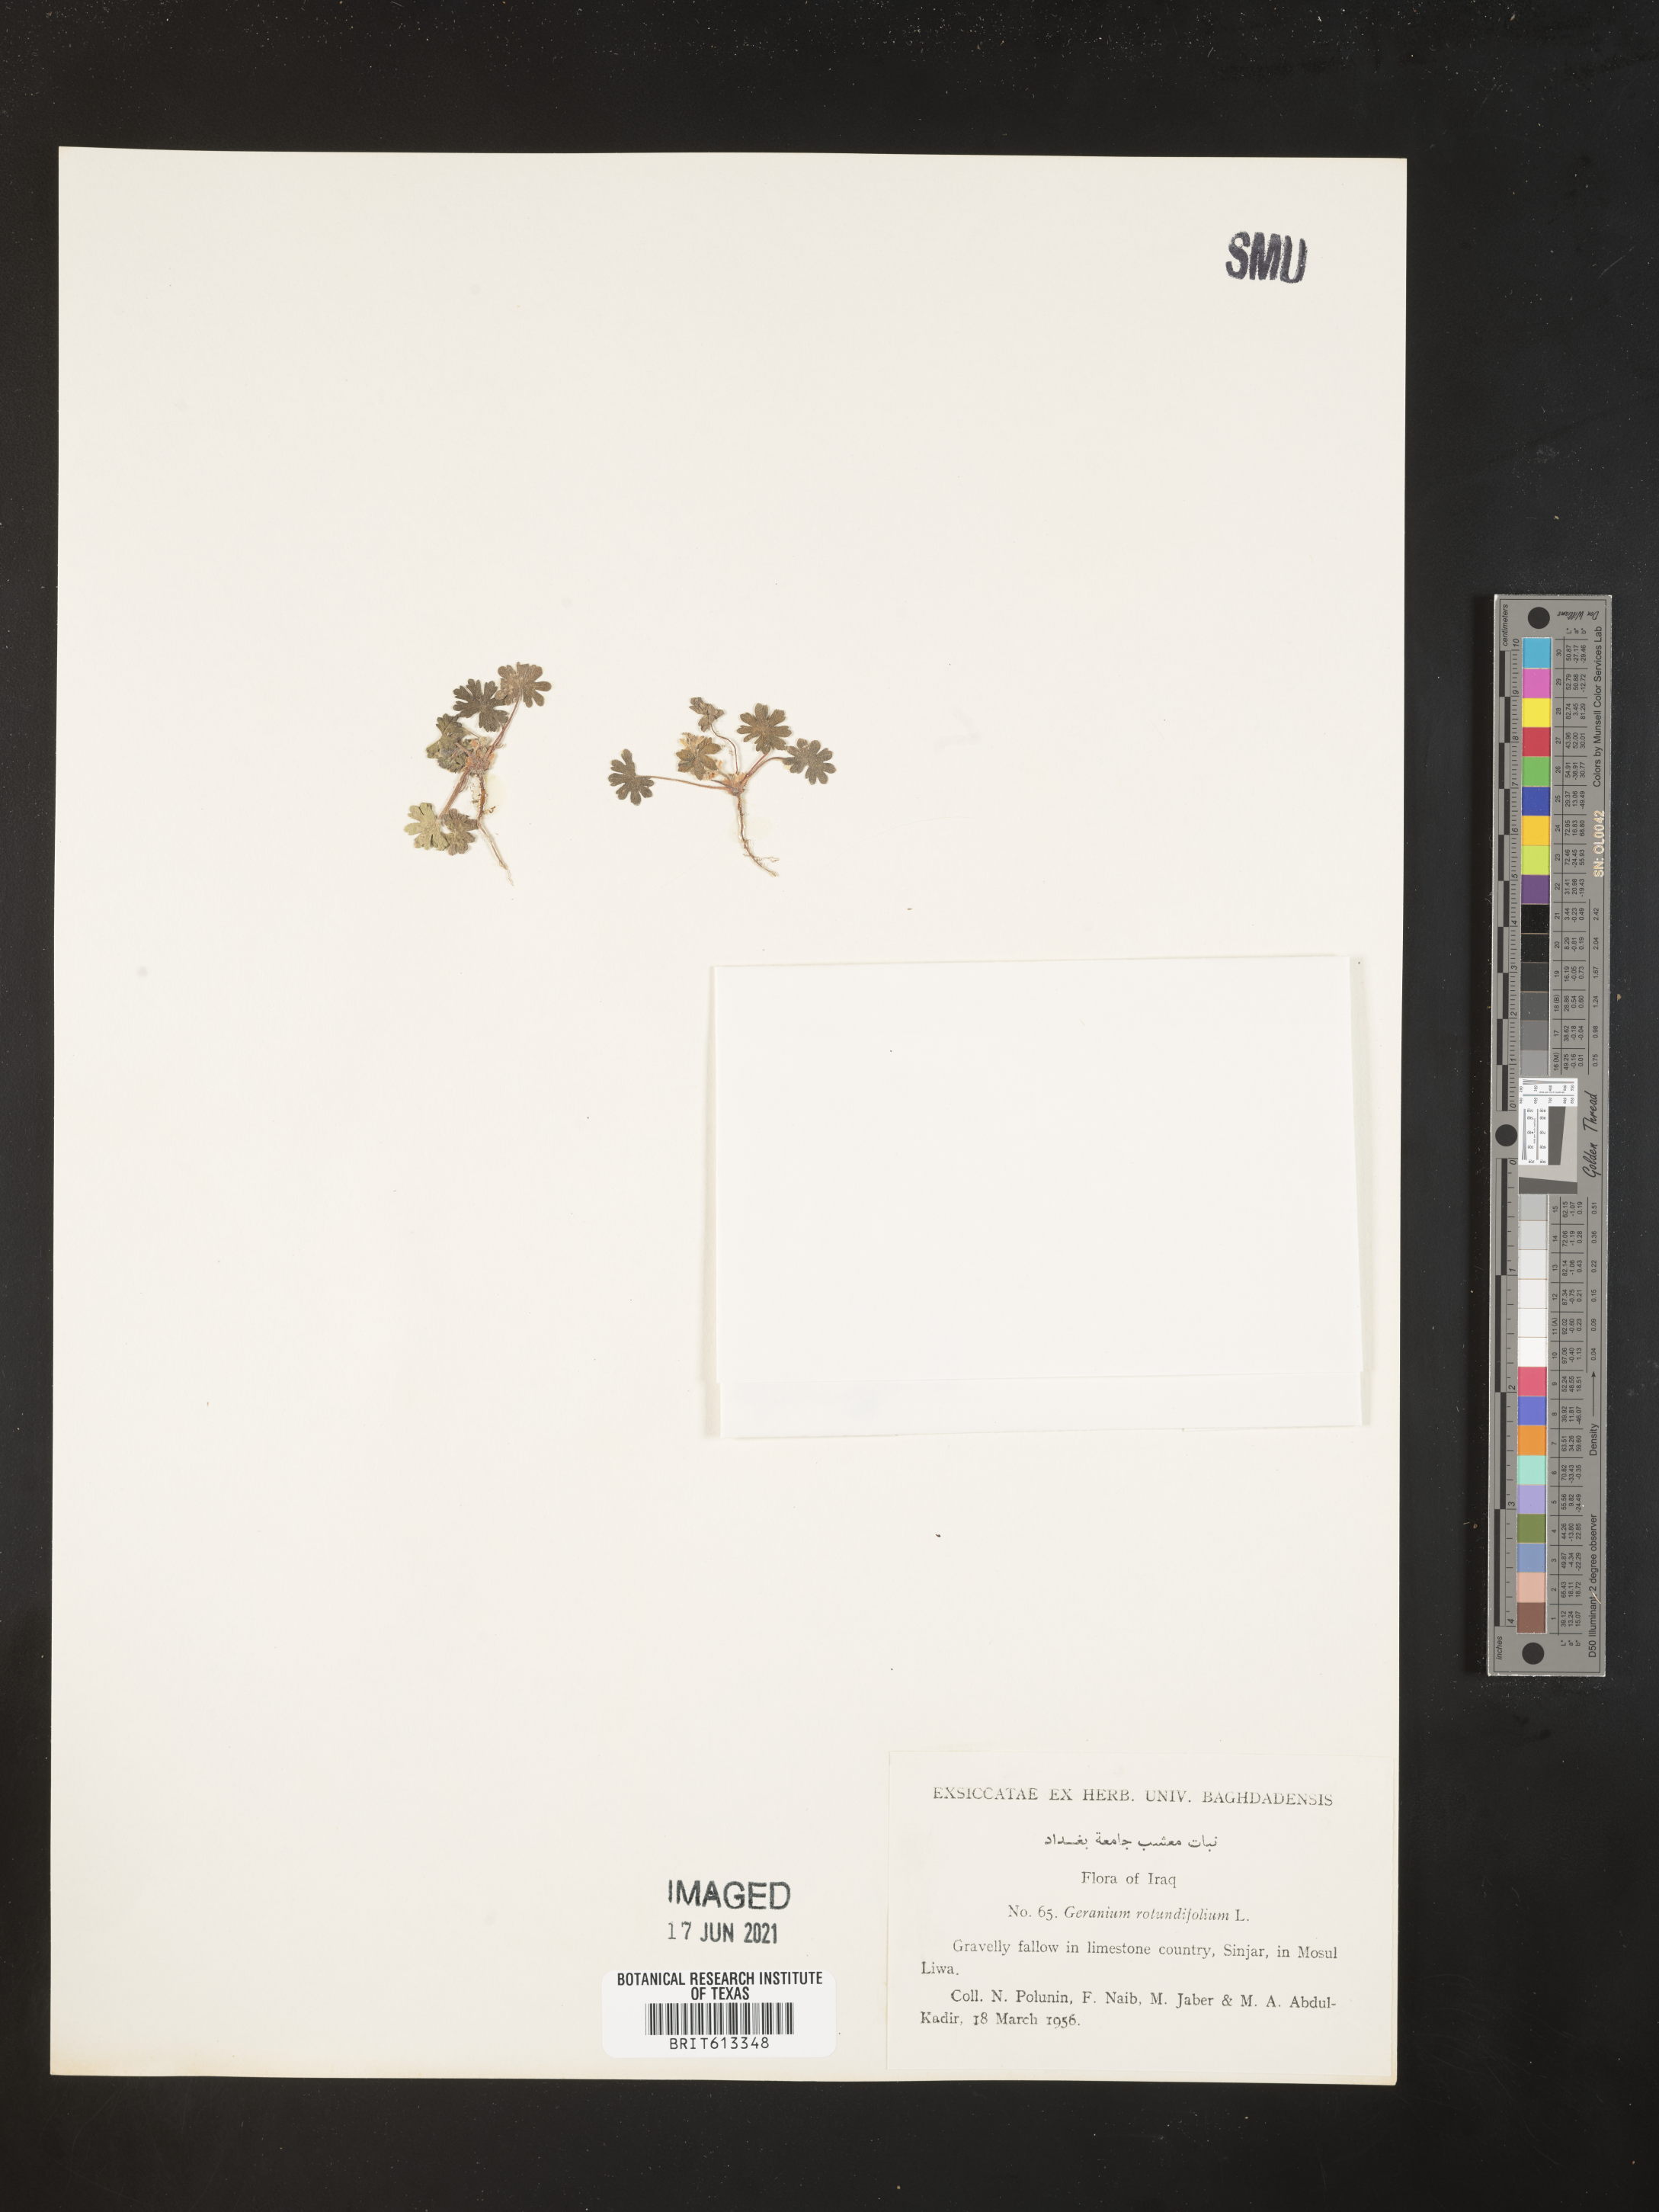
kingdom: Plantae
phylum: Tracheophyta
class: Magnoliopsida
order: Geraniales
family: Geraniaceae
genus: Geranium
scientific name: Geranium rotundifolium
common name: Round-leaved crane's-bill
